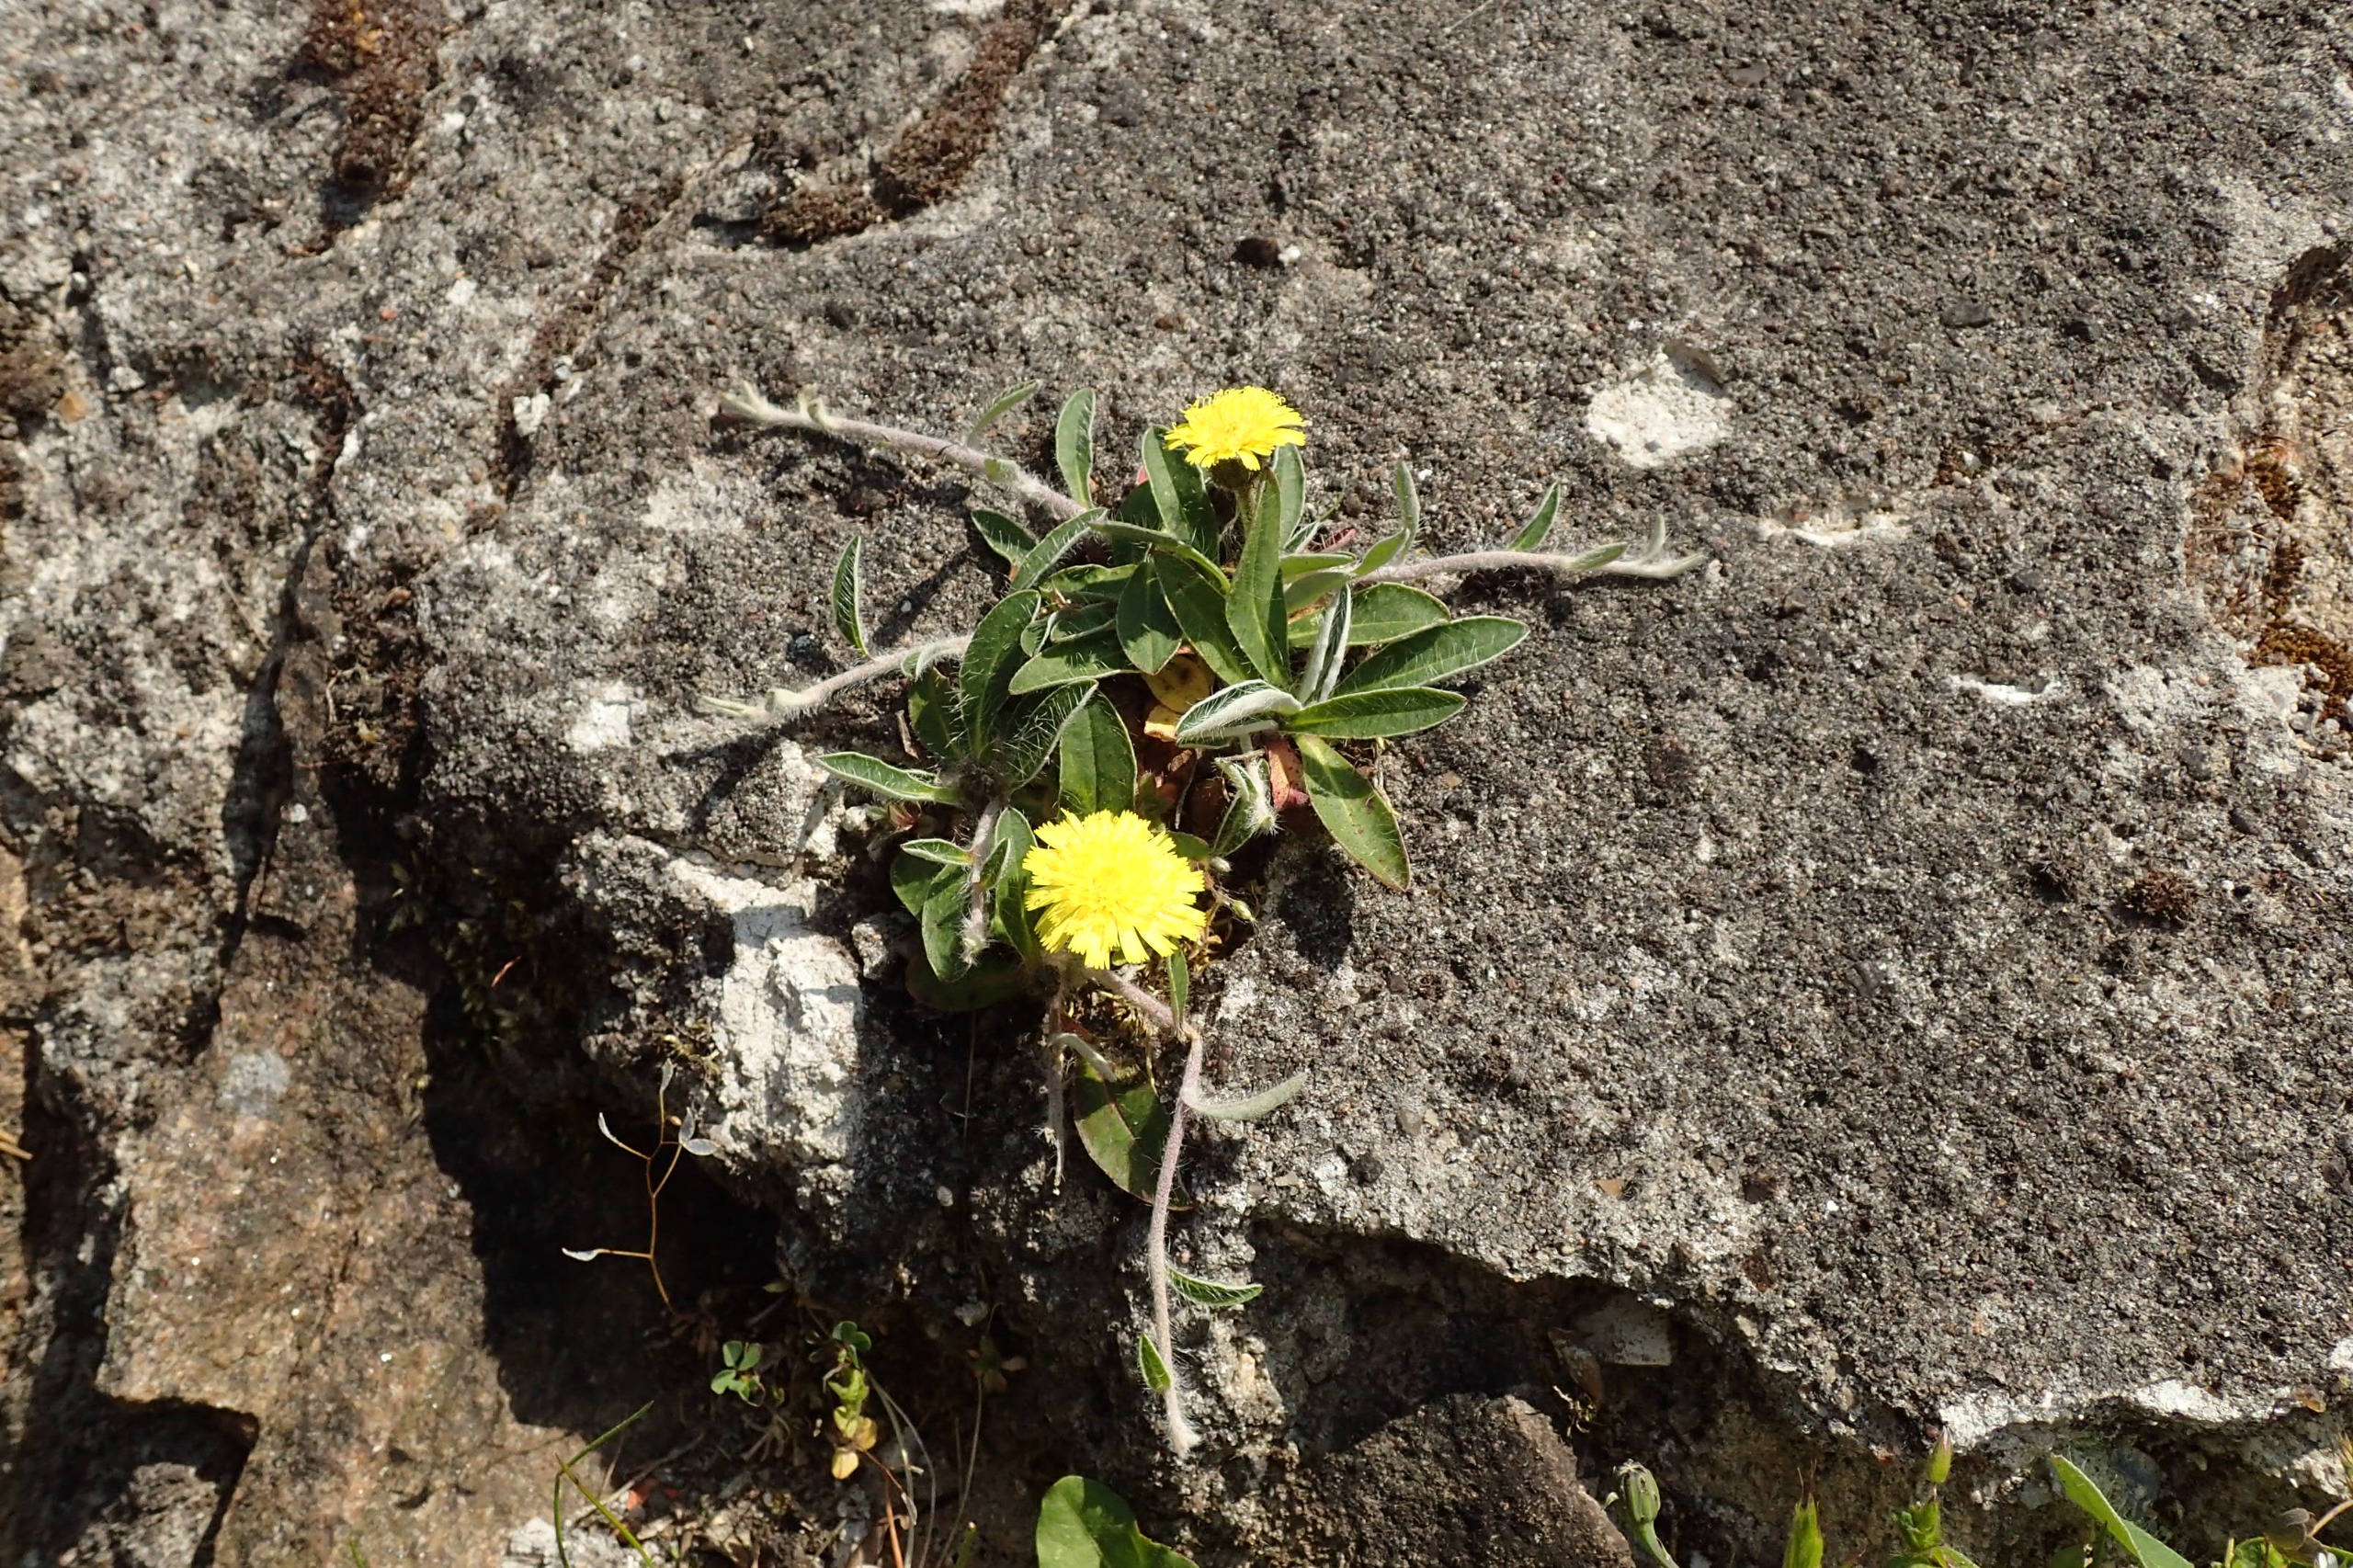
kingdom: Plantae
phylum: Tracheophyta
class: Magnoliopsida
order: Asterales
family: Asteraceae
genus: Pilosella
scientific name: Pilosella officinarum
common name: Håret høgeurt
